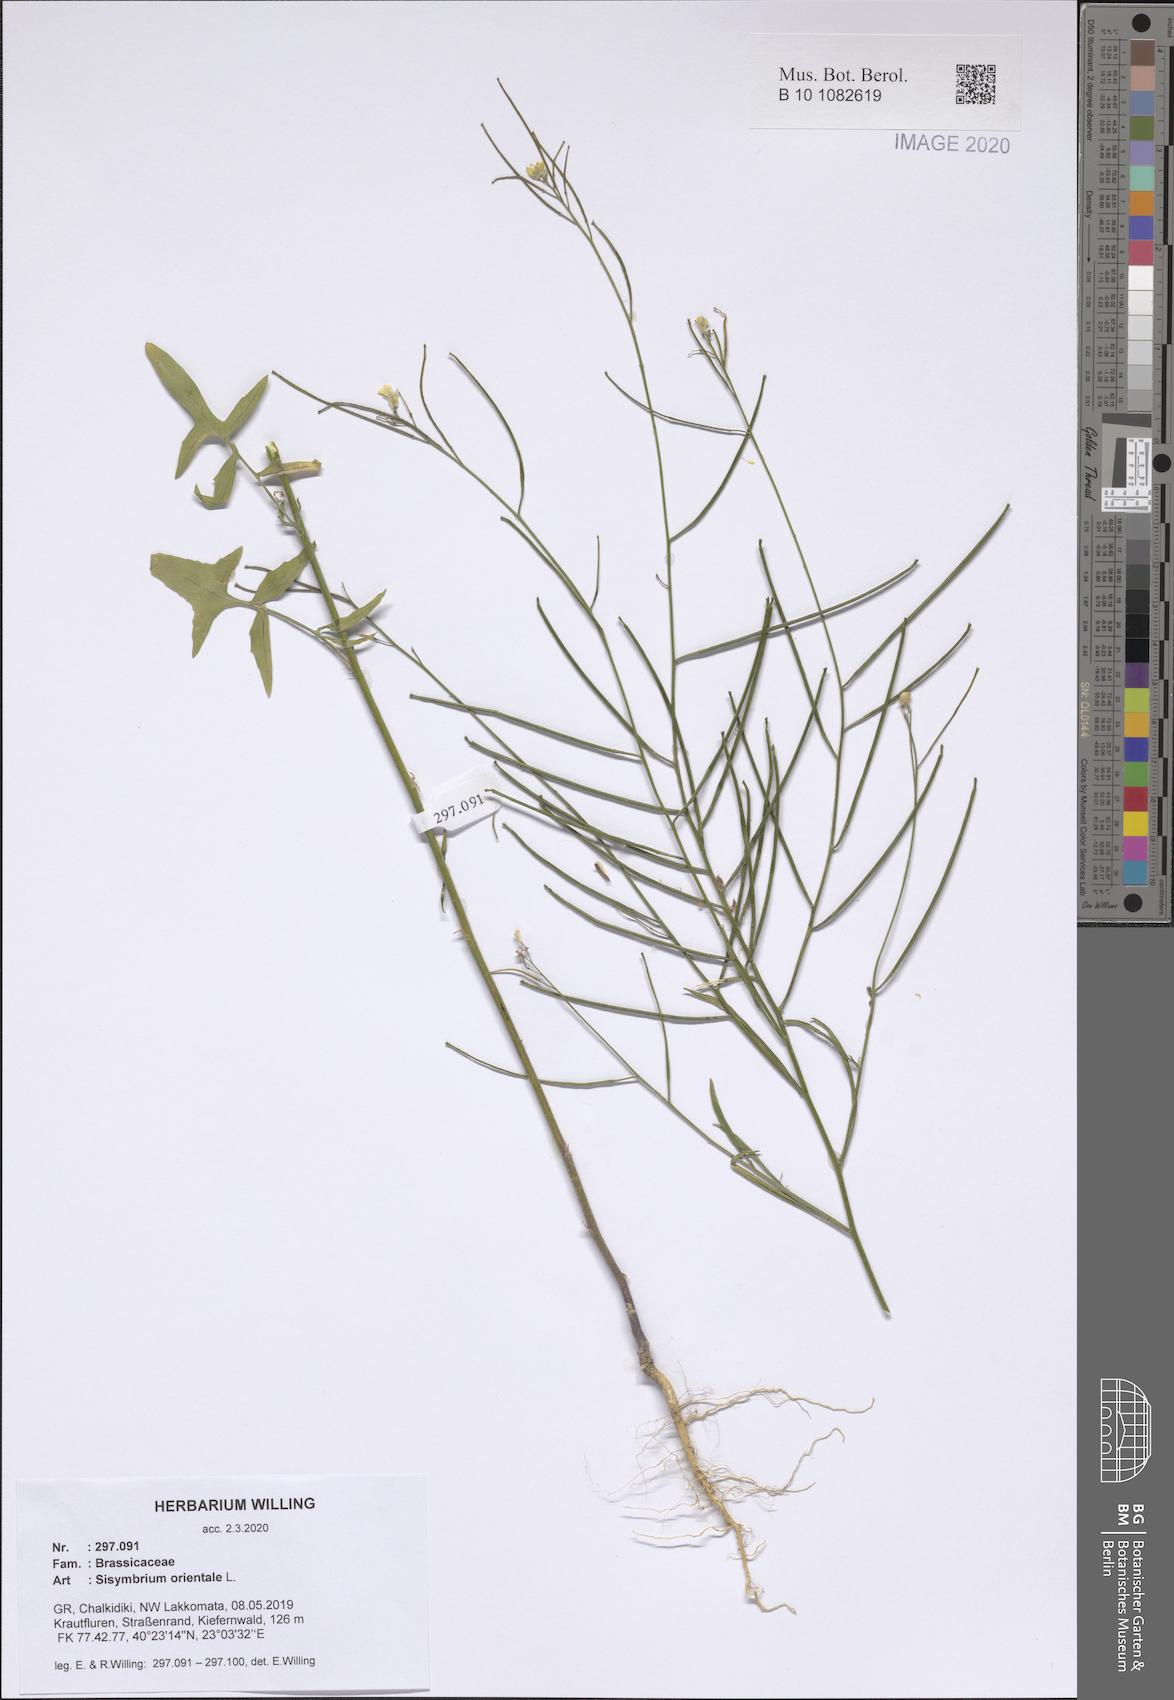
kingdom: Plantae
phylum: Tracheophyta
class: Magnoliopsida
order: Brassicales
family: Brassicaceae
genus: Sisymbrium
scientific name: Sisymbrium orientale
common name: Eastern rocket
